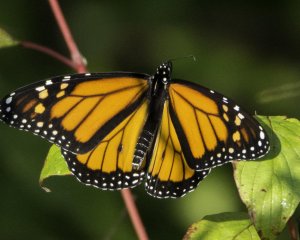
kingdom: Animalia
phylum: Arthropoda
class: Insecta
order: Lepidoptera
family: Nymphalidae
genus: Danaus
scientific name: Danaus plexippus
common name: Monarch
